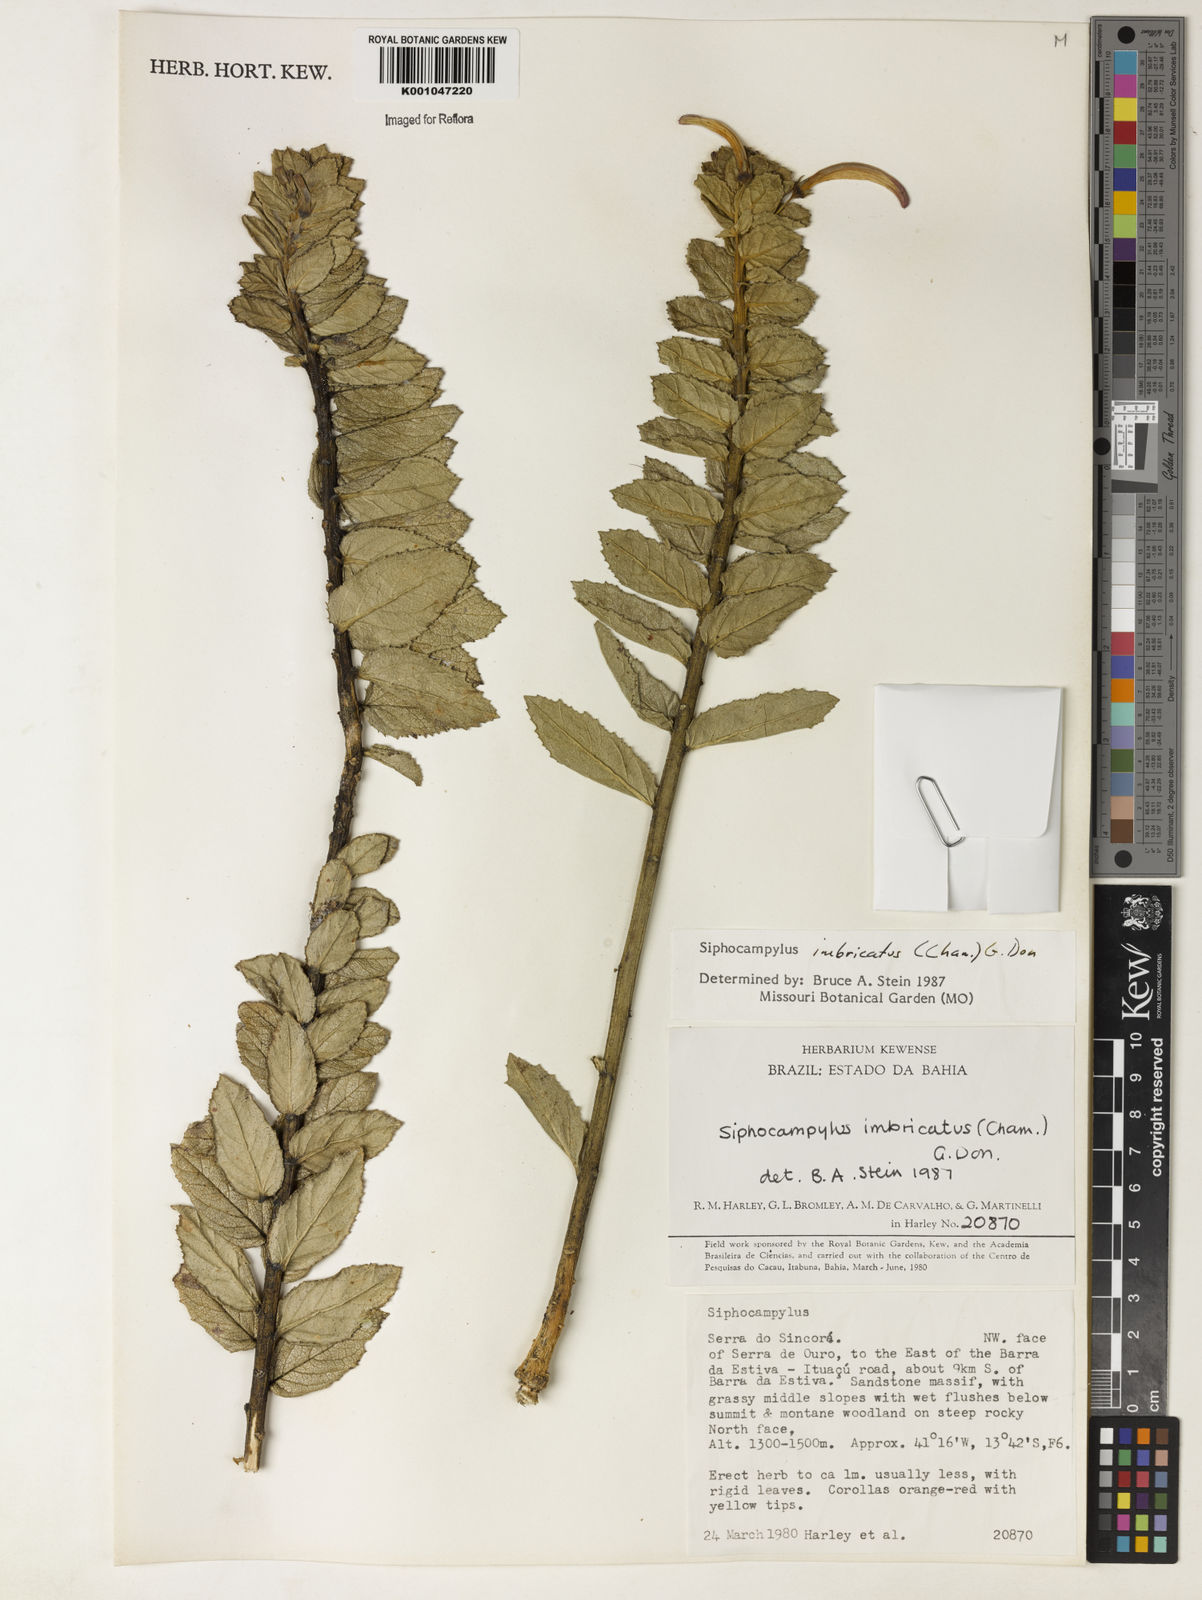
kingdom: Plantae
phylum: Tracheophyta
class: Magnoliopsida
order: Asterales
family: Campanulaceae
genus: Siphocampylus
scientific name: Siphocampylus imbricatus
